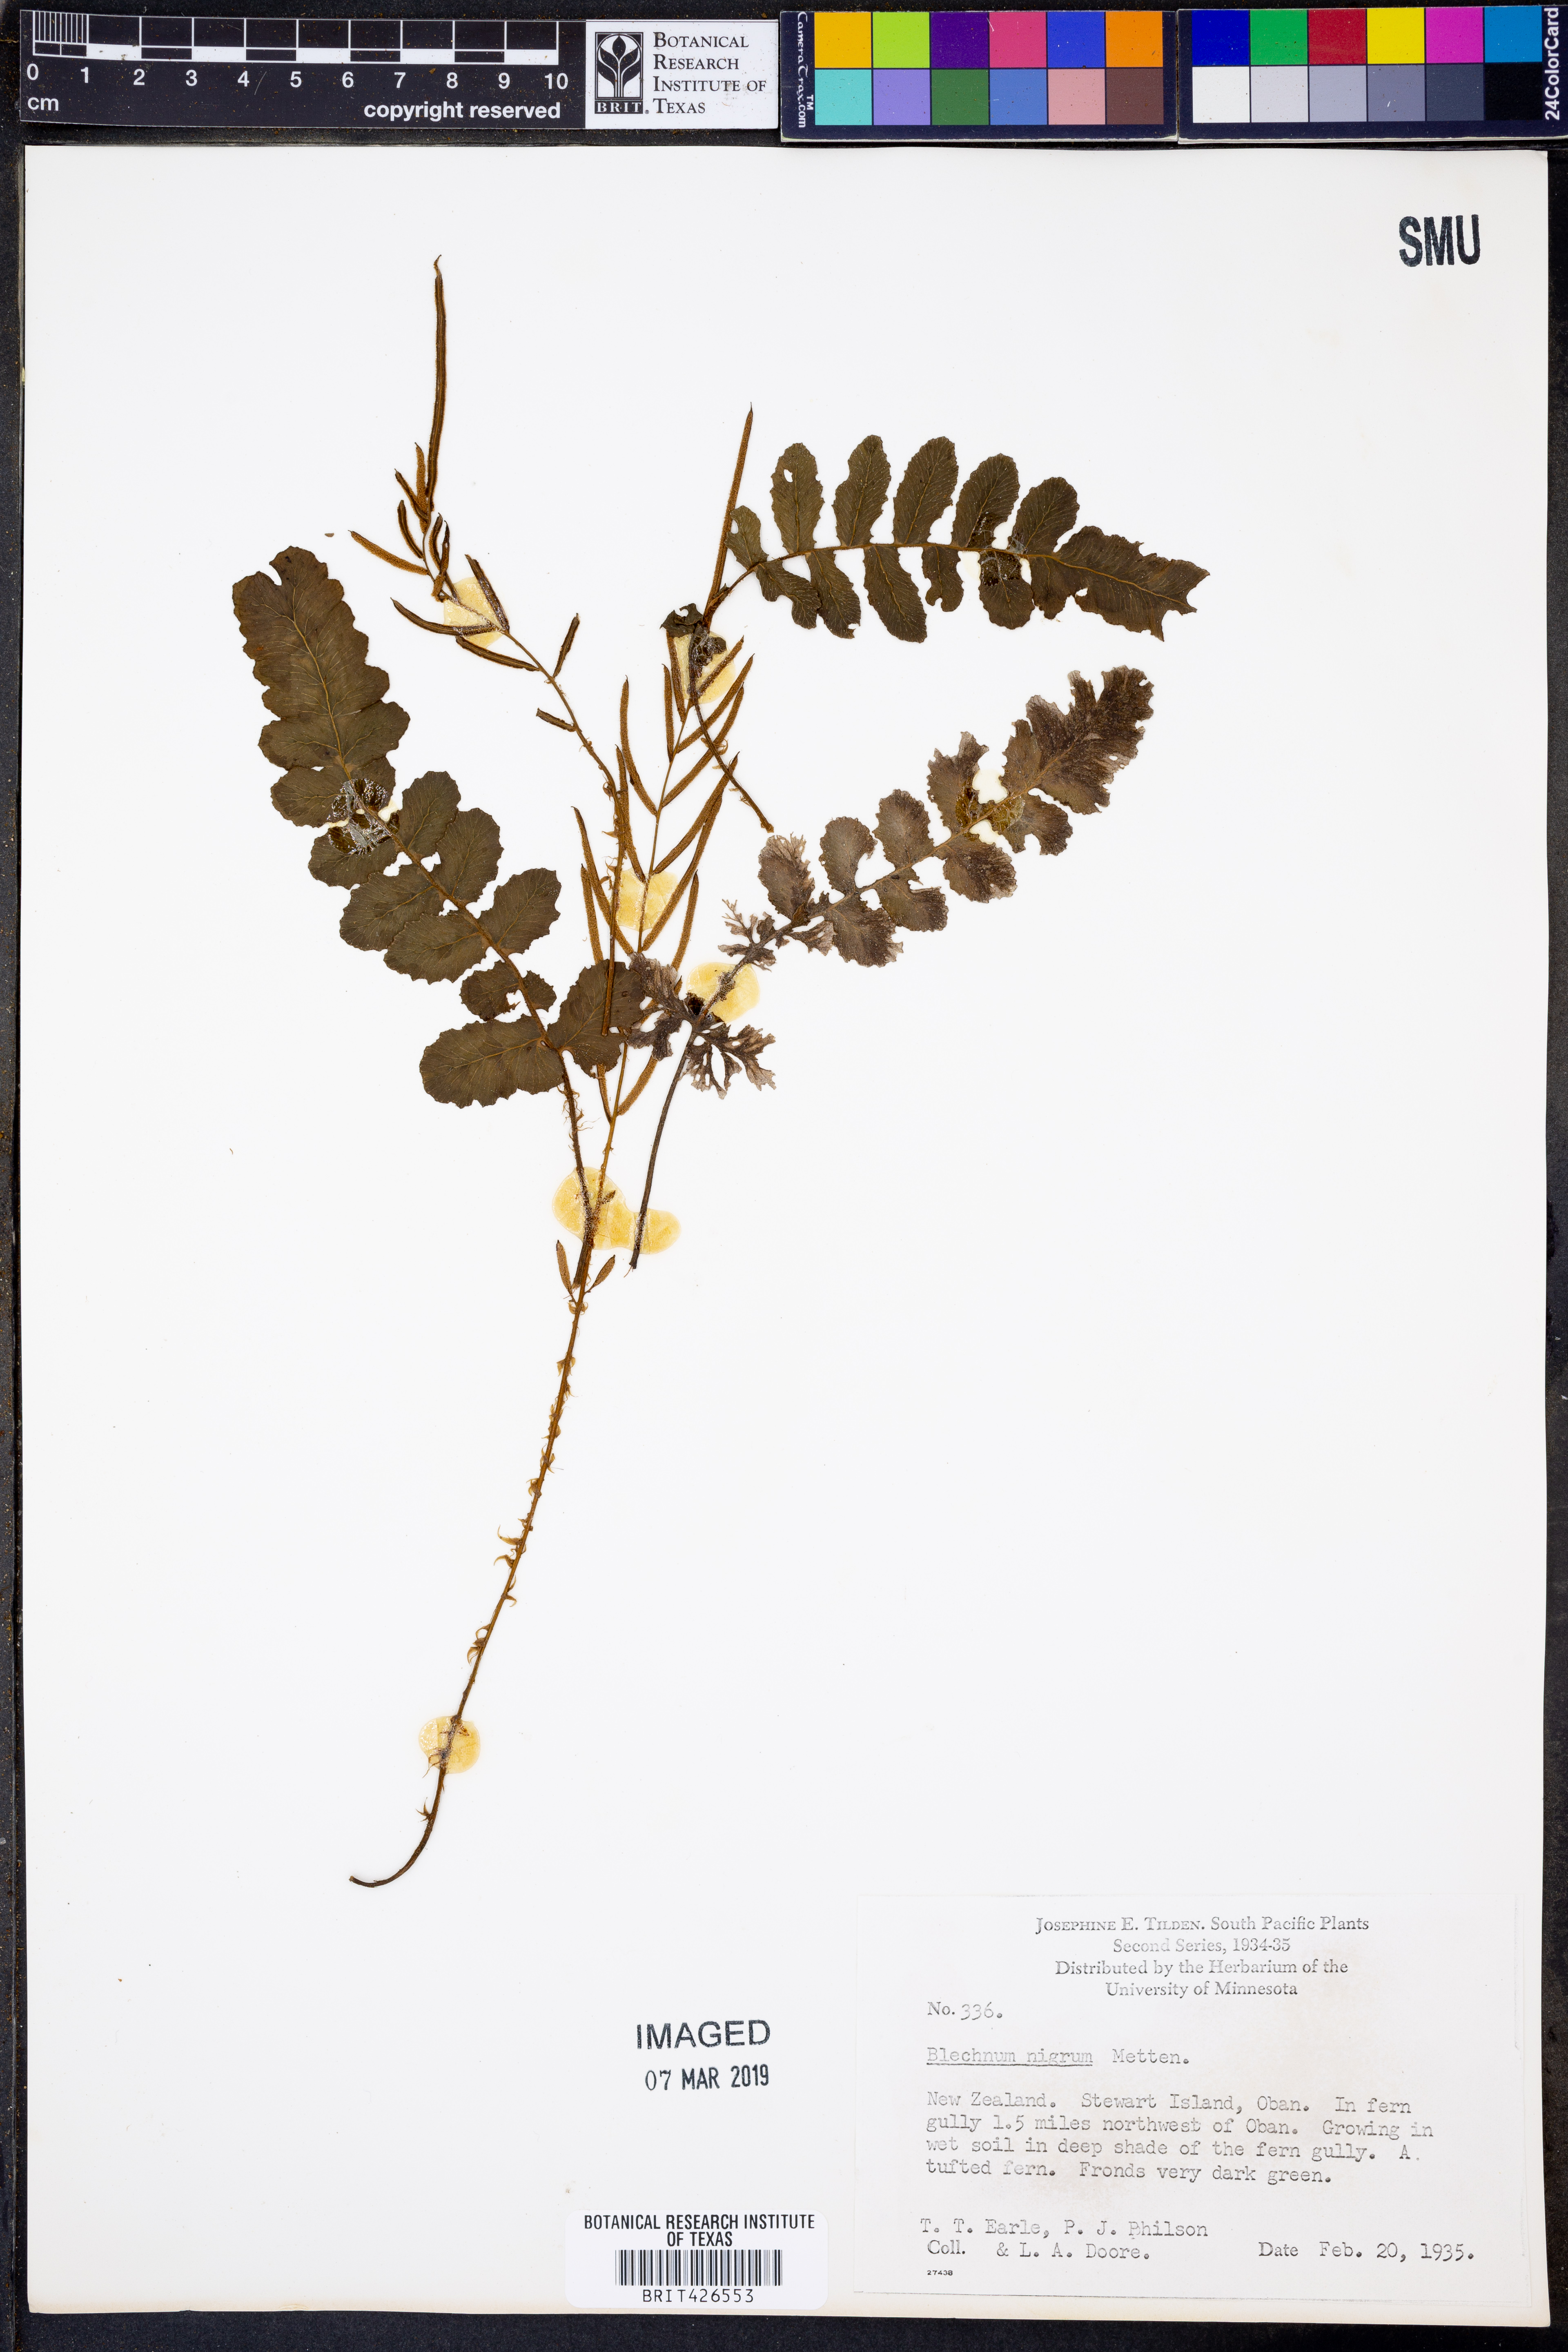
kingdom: Plantae
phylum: Tracheophyta
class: Polypodiopsida
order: Polypodiales
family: Blechnaceae
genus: Lomaridium
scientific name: Lomaridium nigrocostatum
